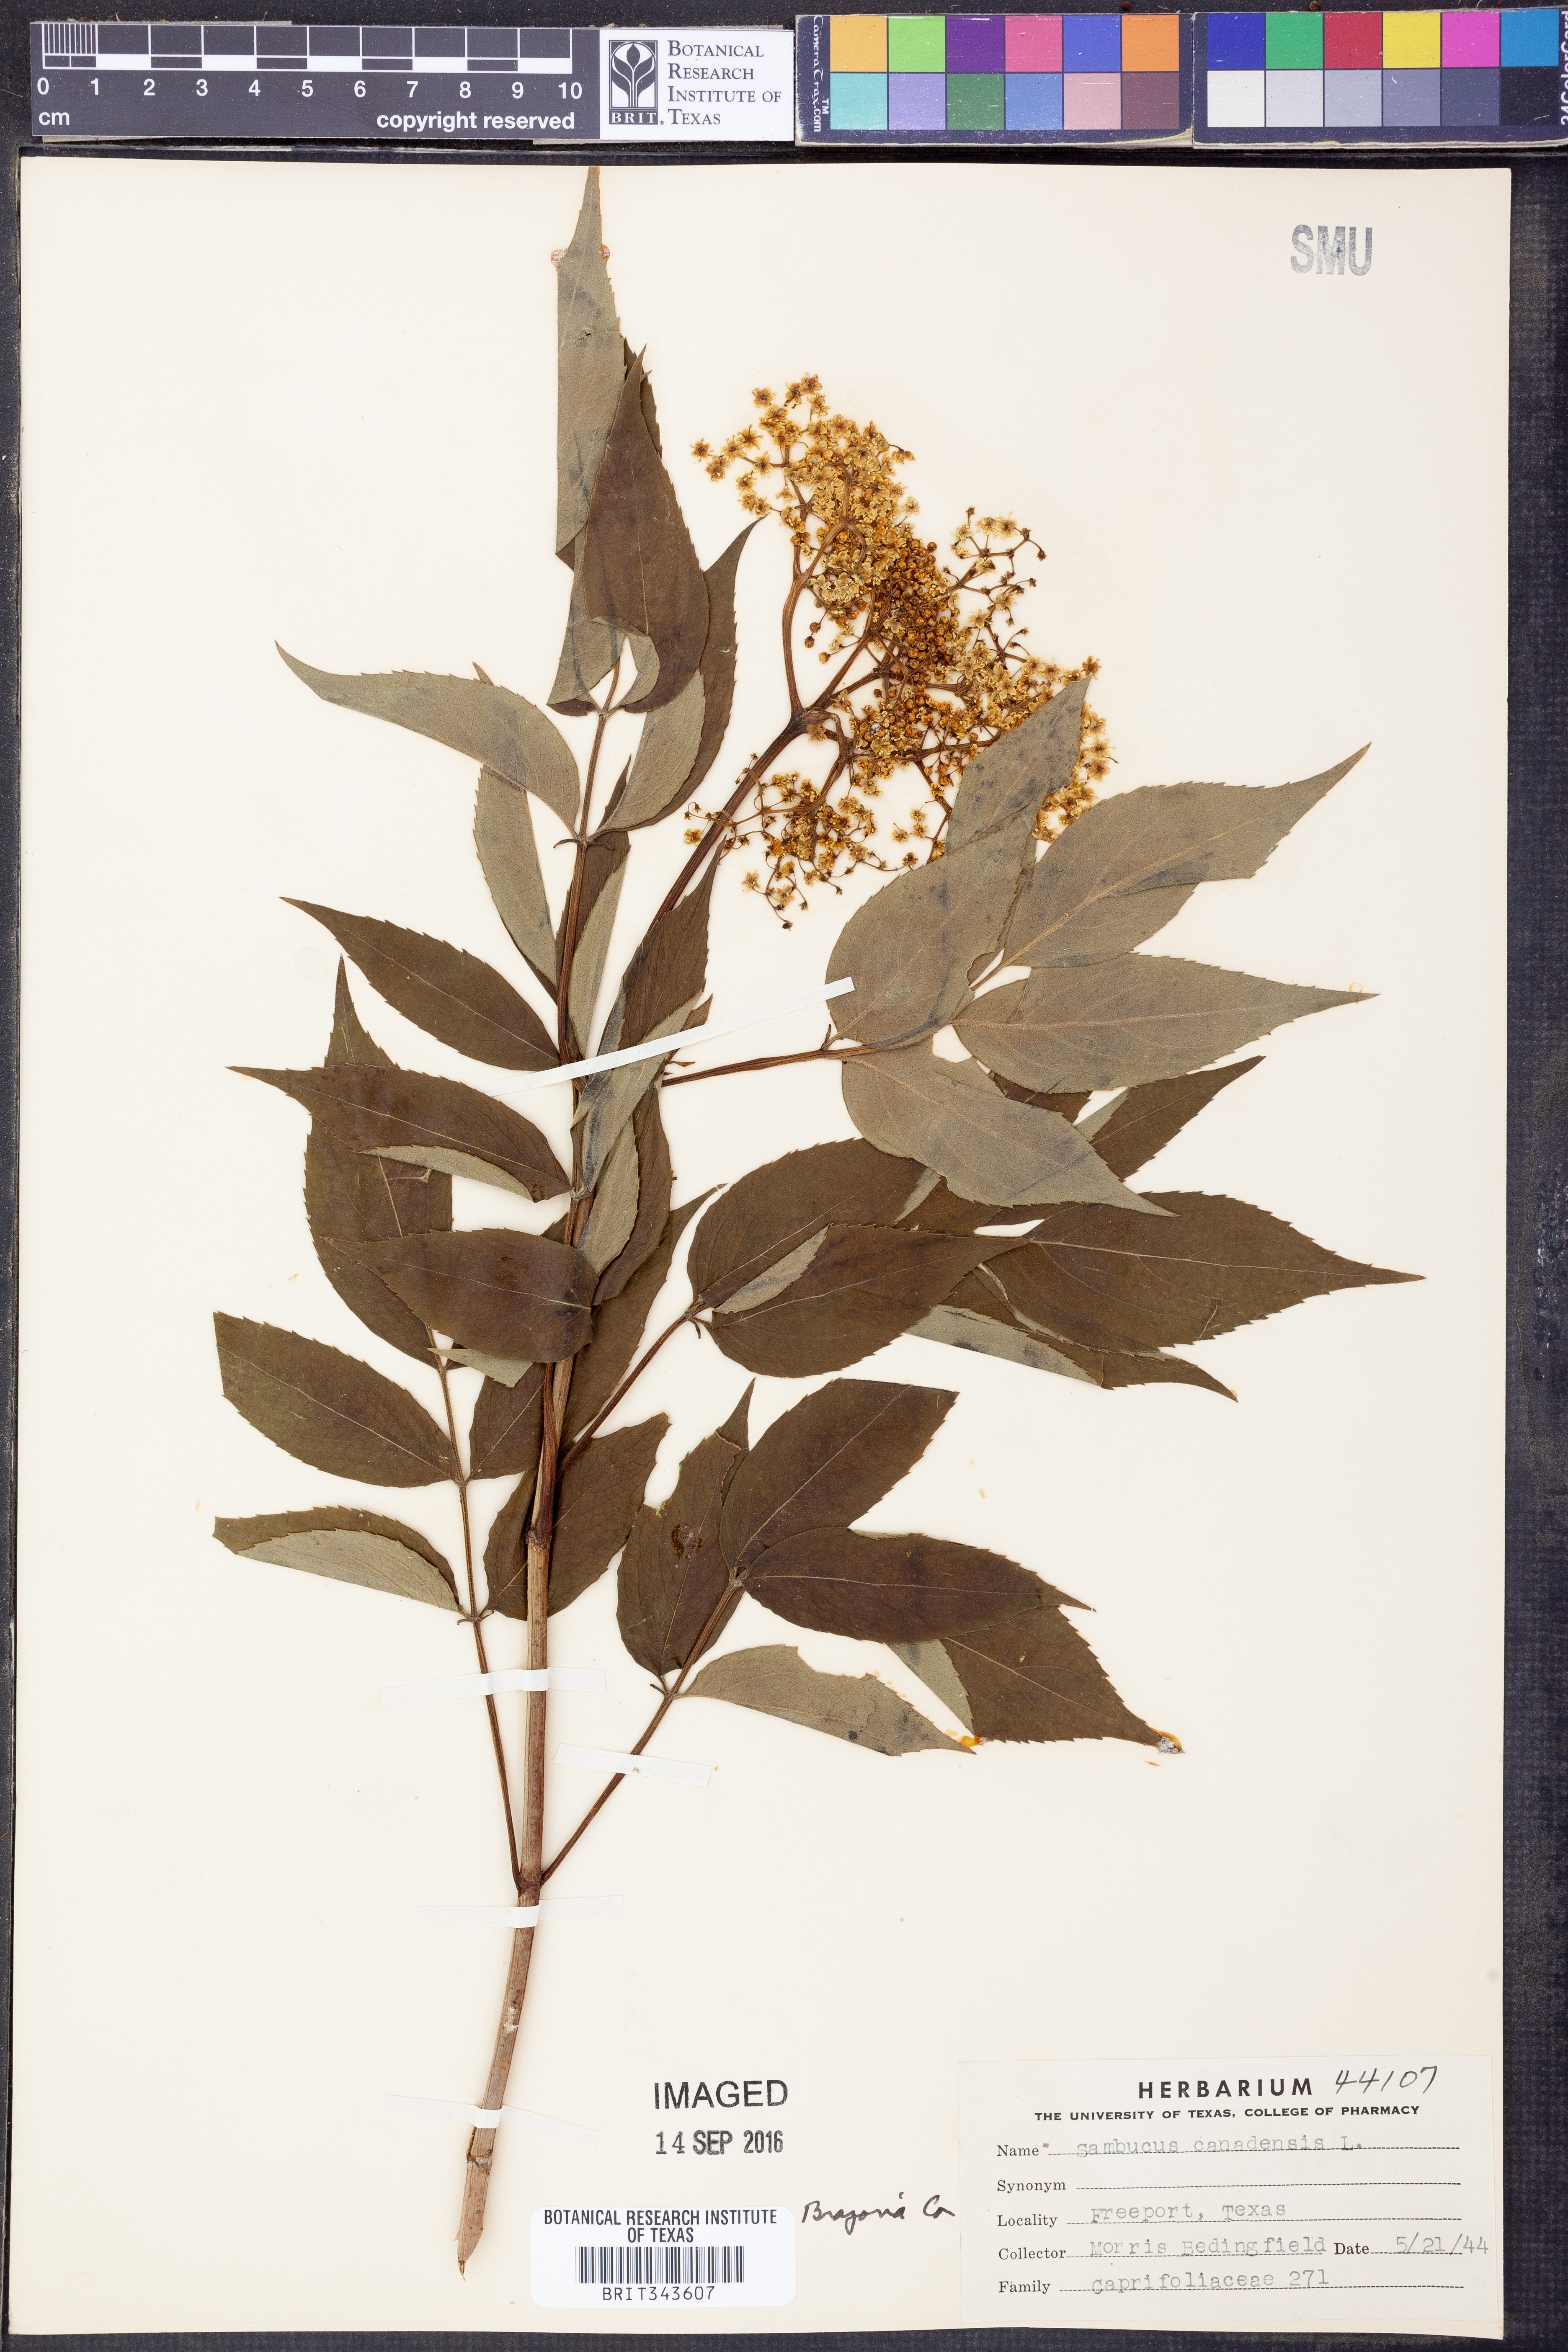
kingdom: Plantae
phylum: Tracheophyta
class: Magnoliopsida
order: Dipsacales
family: Viburnaceae
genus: Sambucus
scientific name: Sambucus canadensis
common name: American elder
